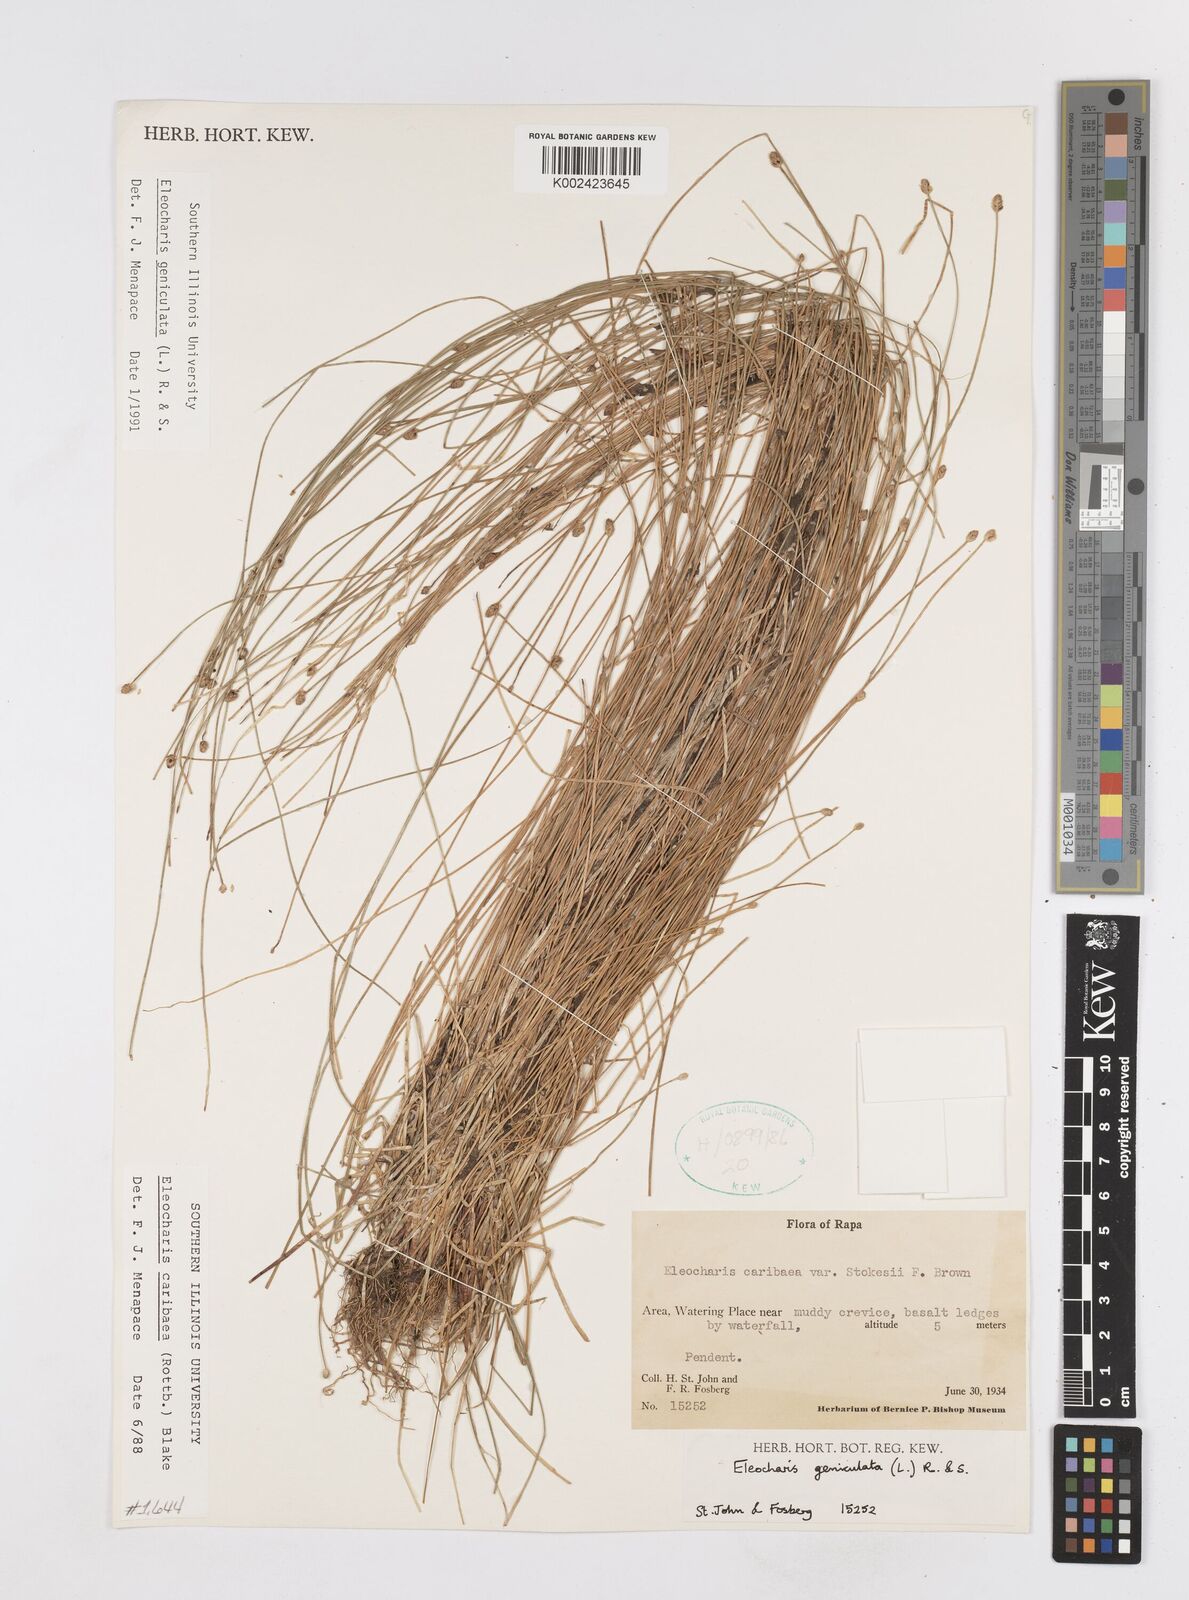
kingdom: Plantae
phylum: Tracheophyta
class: Liliopsida
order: Poales
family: Cyperaceae
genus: Eleocharis
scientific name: Eleocharis geniculata
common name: Canada spikesedge
